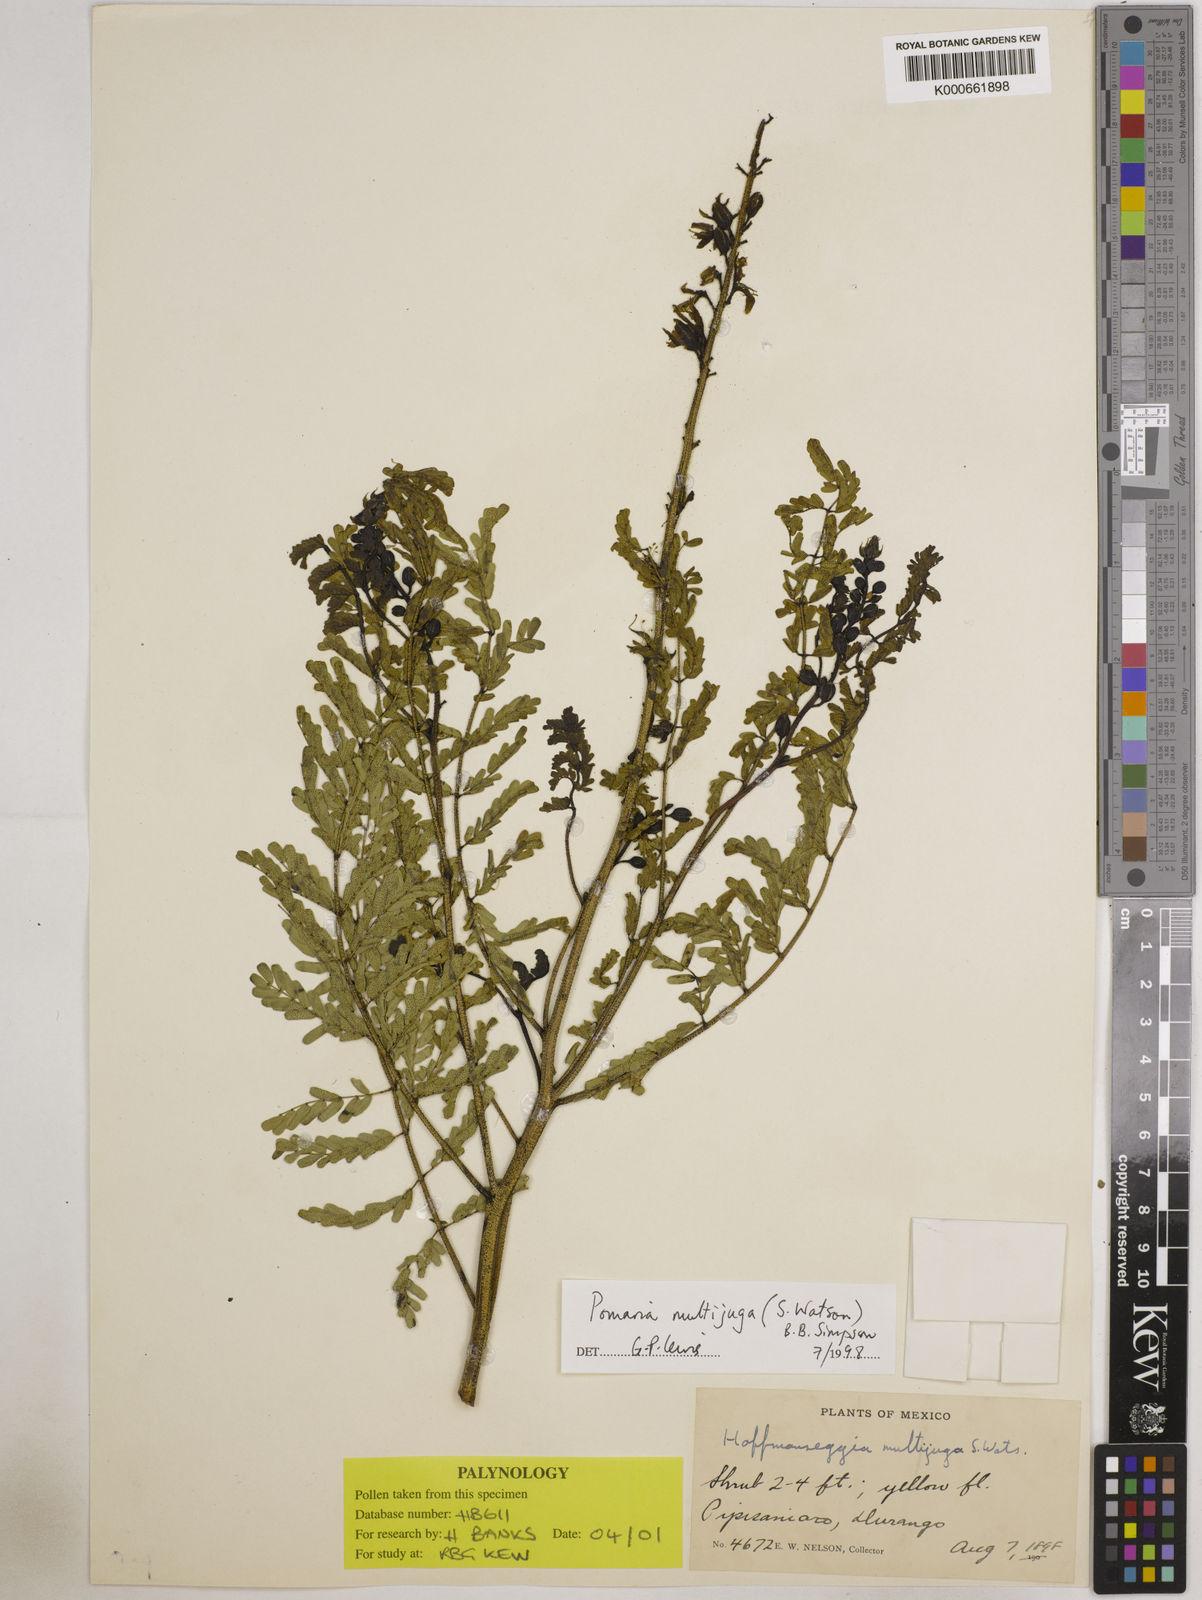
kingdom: Plantae
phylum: Tracheophyta
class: Magnoliopsida
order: Fabales
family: Fabaceae
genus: Pomaria
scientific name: Pomaria multijuga
